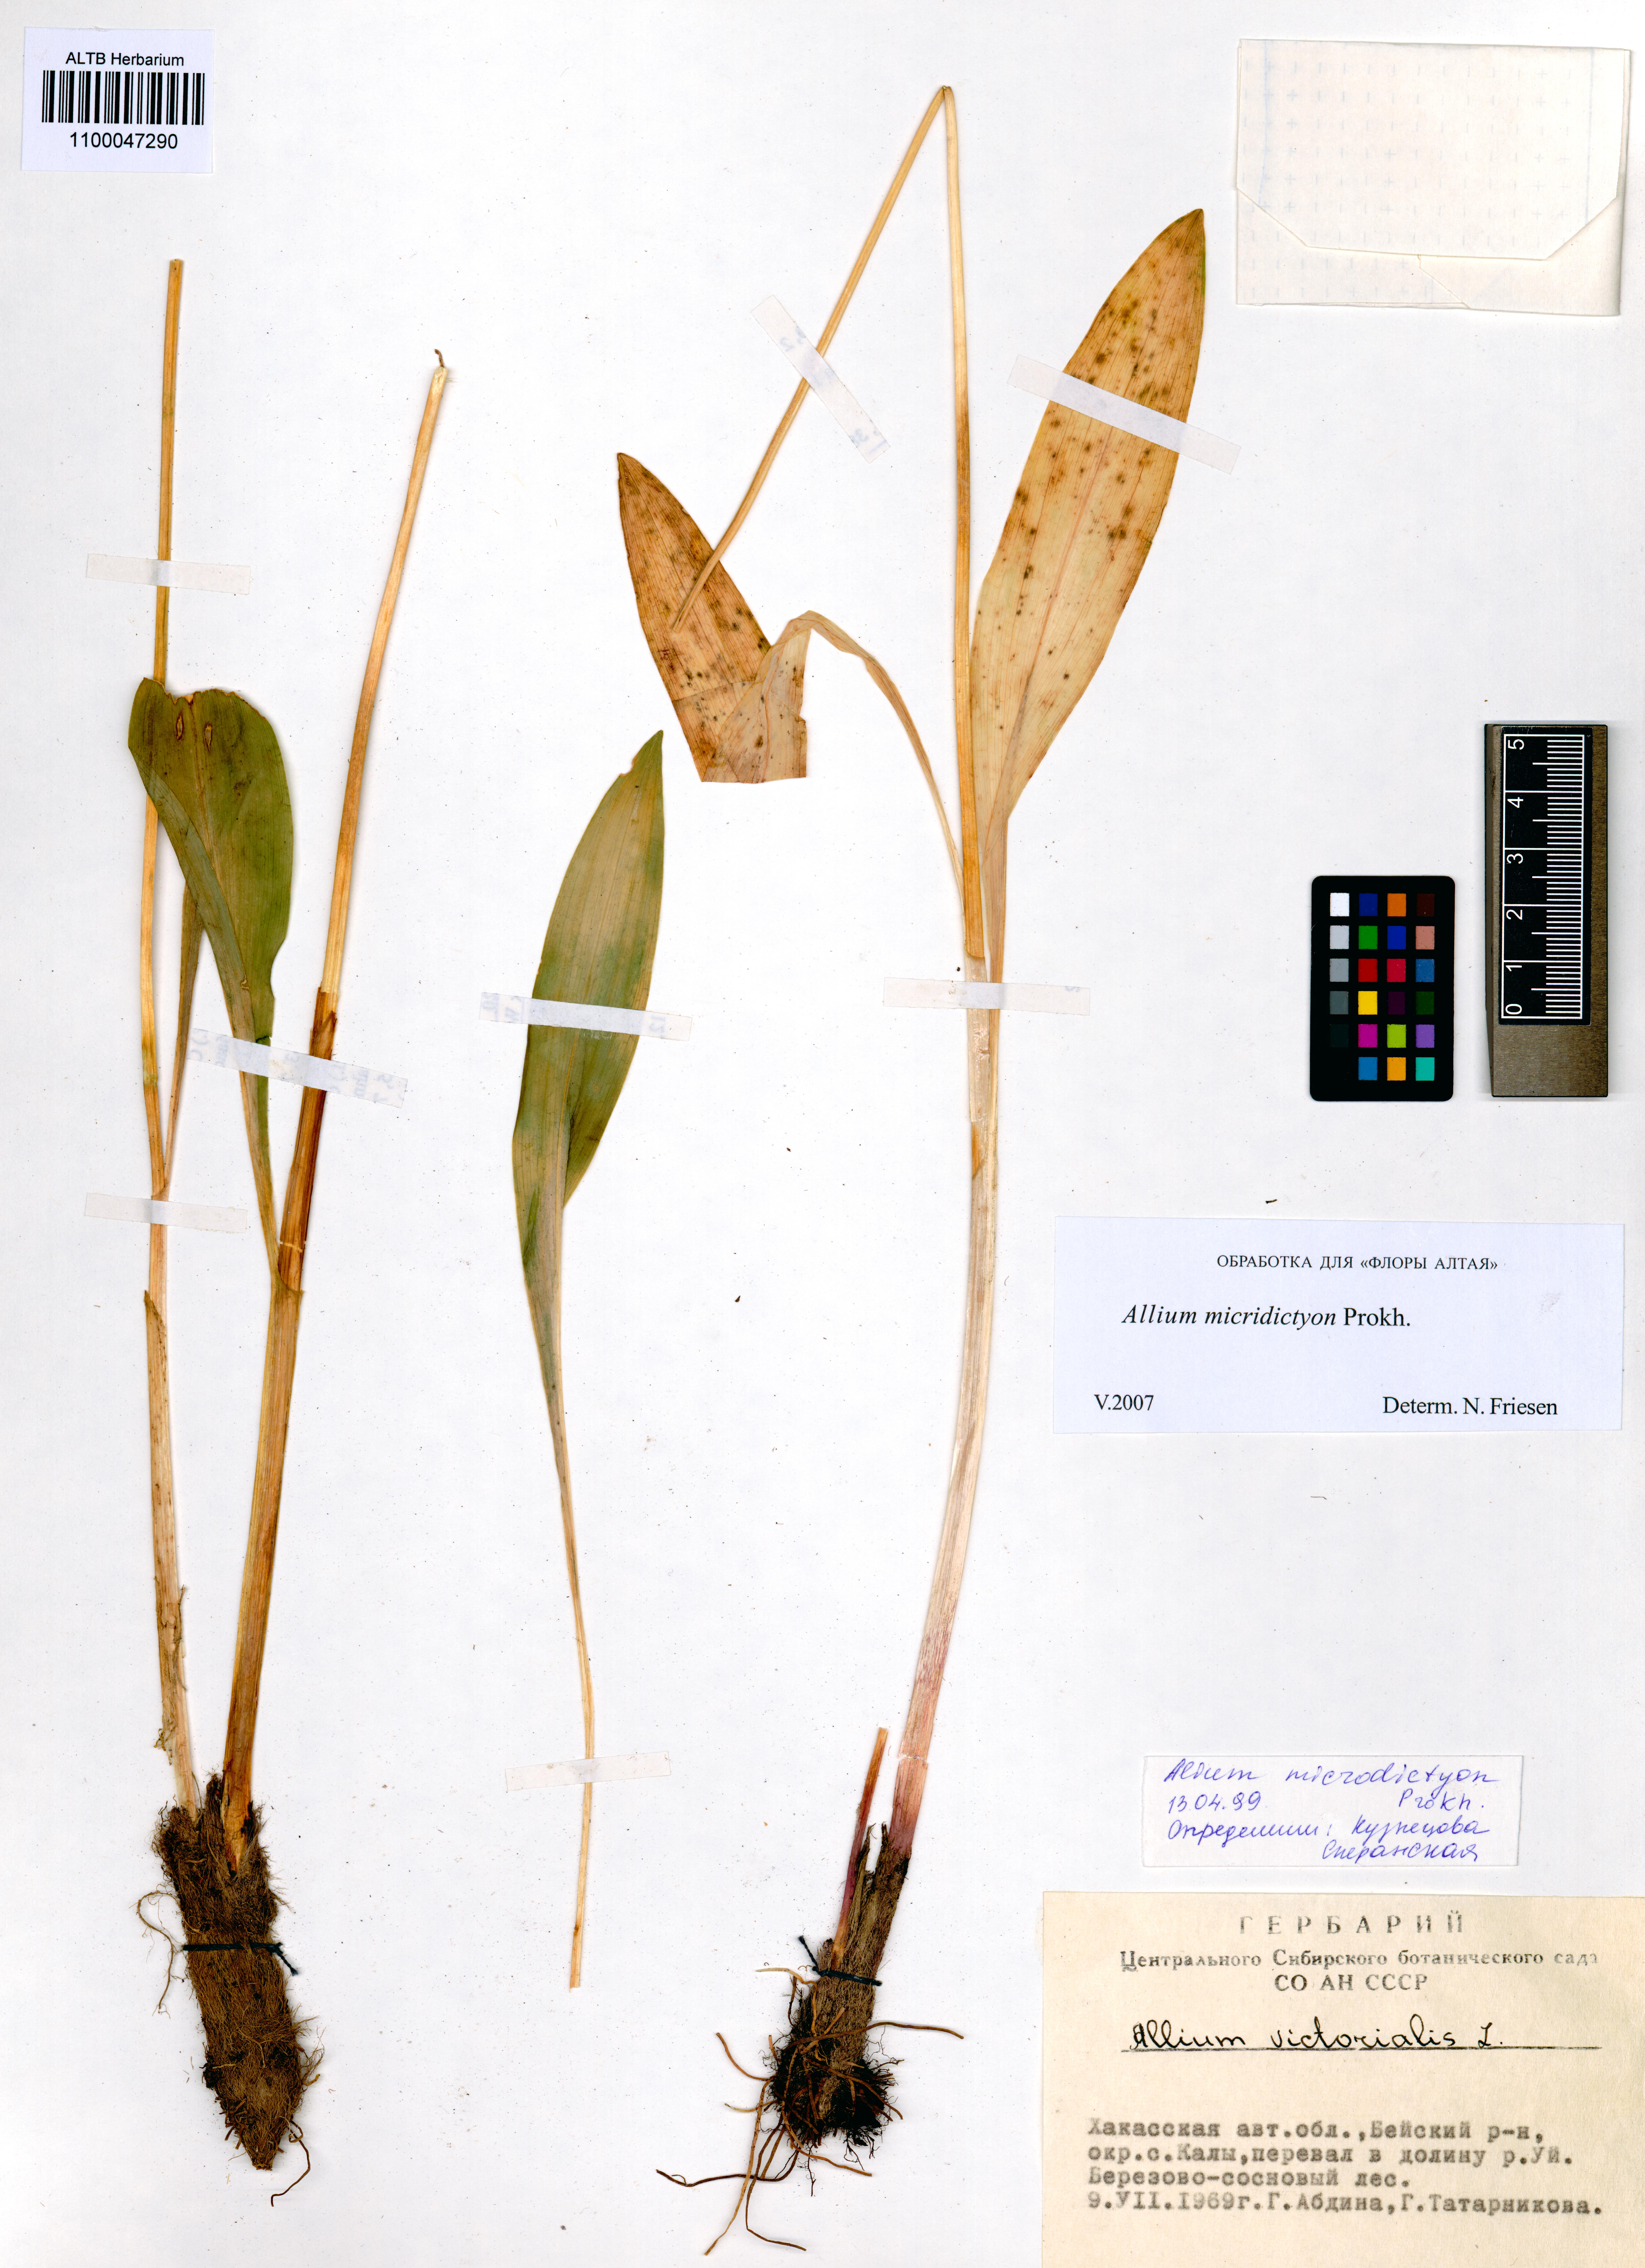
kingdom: Plantae
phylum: Tracheophyta
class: Liliopsida
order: Asparagales
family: Amaryllidaceae
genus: Allium
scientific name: Allium microdictyon
